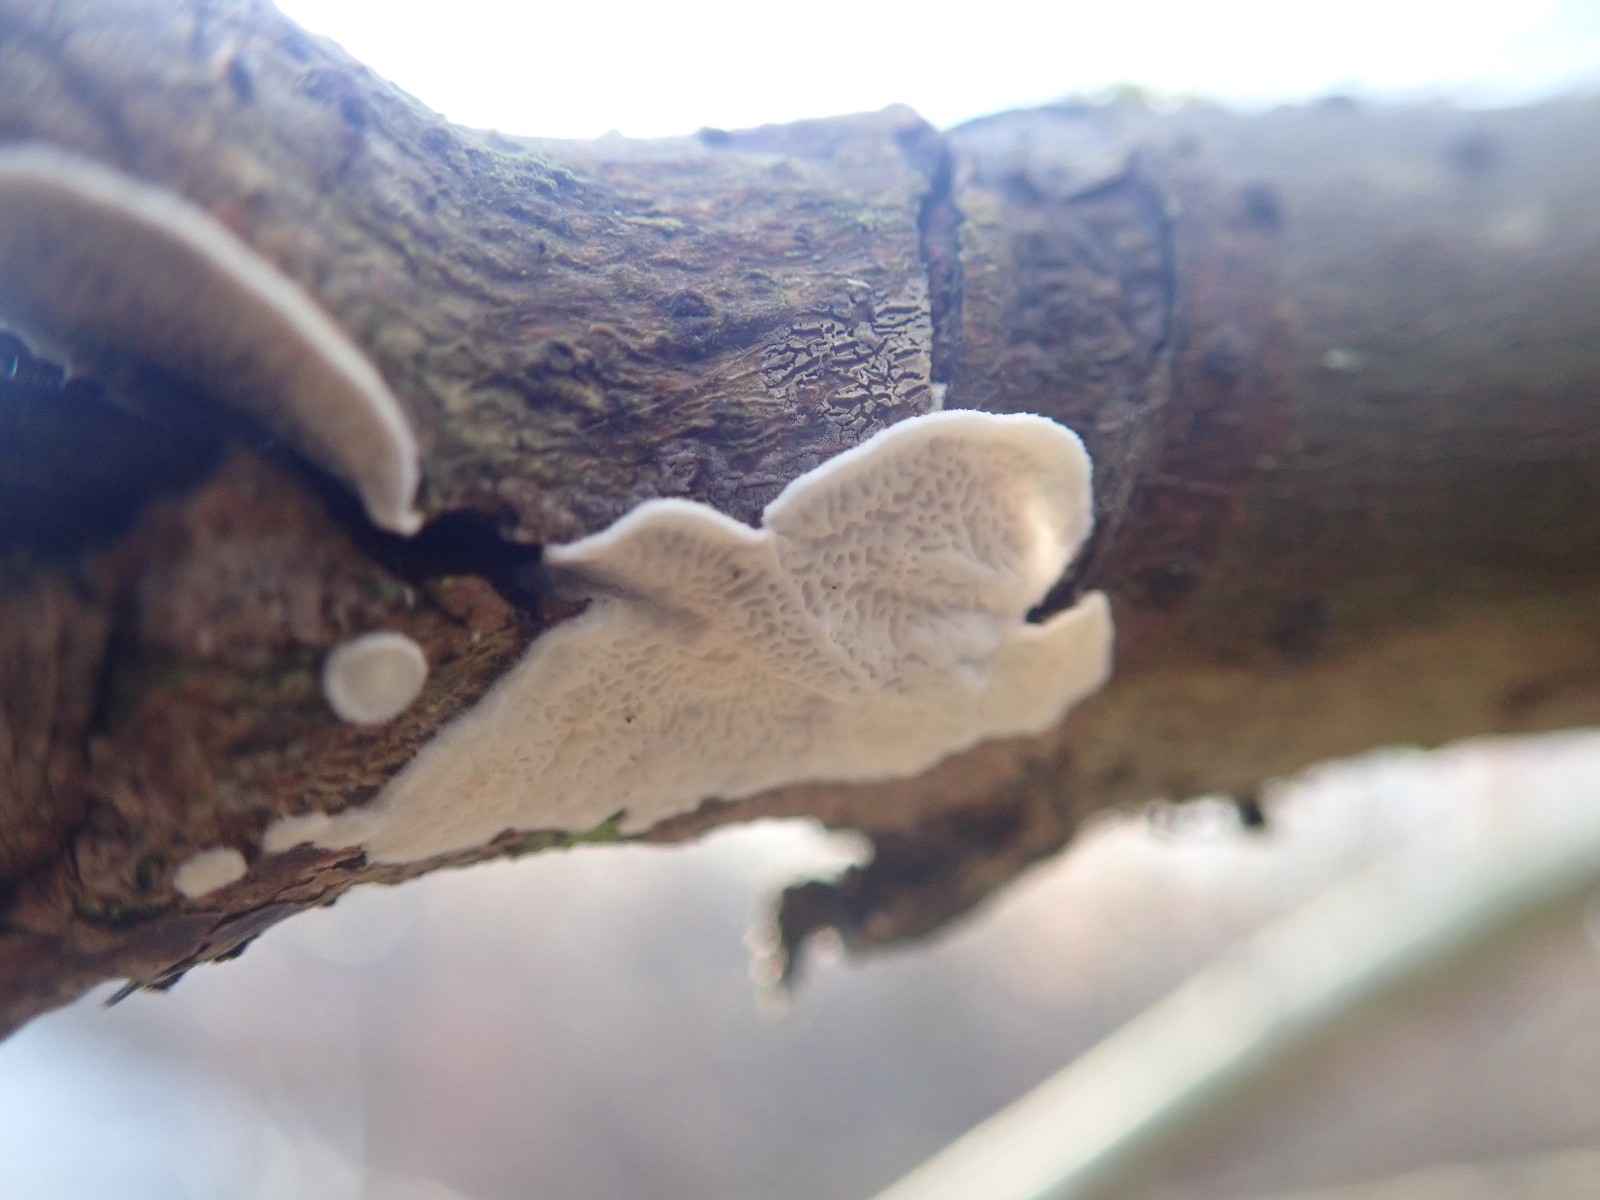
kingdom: Fungi
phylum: Basidiomycota
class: Agaricomycetes
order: Polyporales
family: Irpicaceae
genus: Byssomerulius
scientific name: Byssomerulius corium
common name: læder-åresvamp
